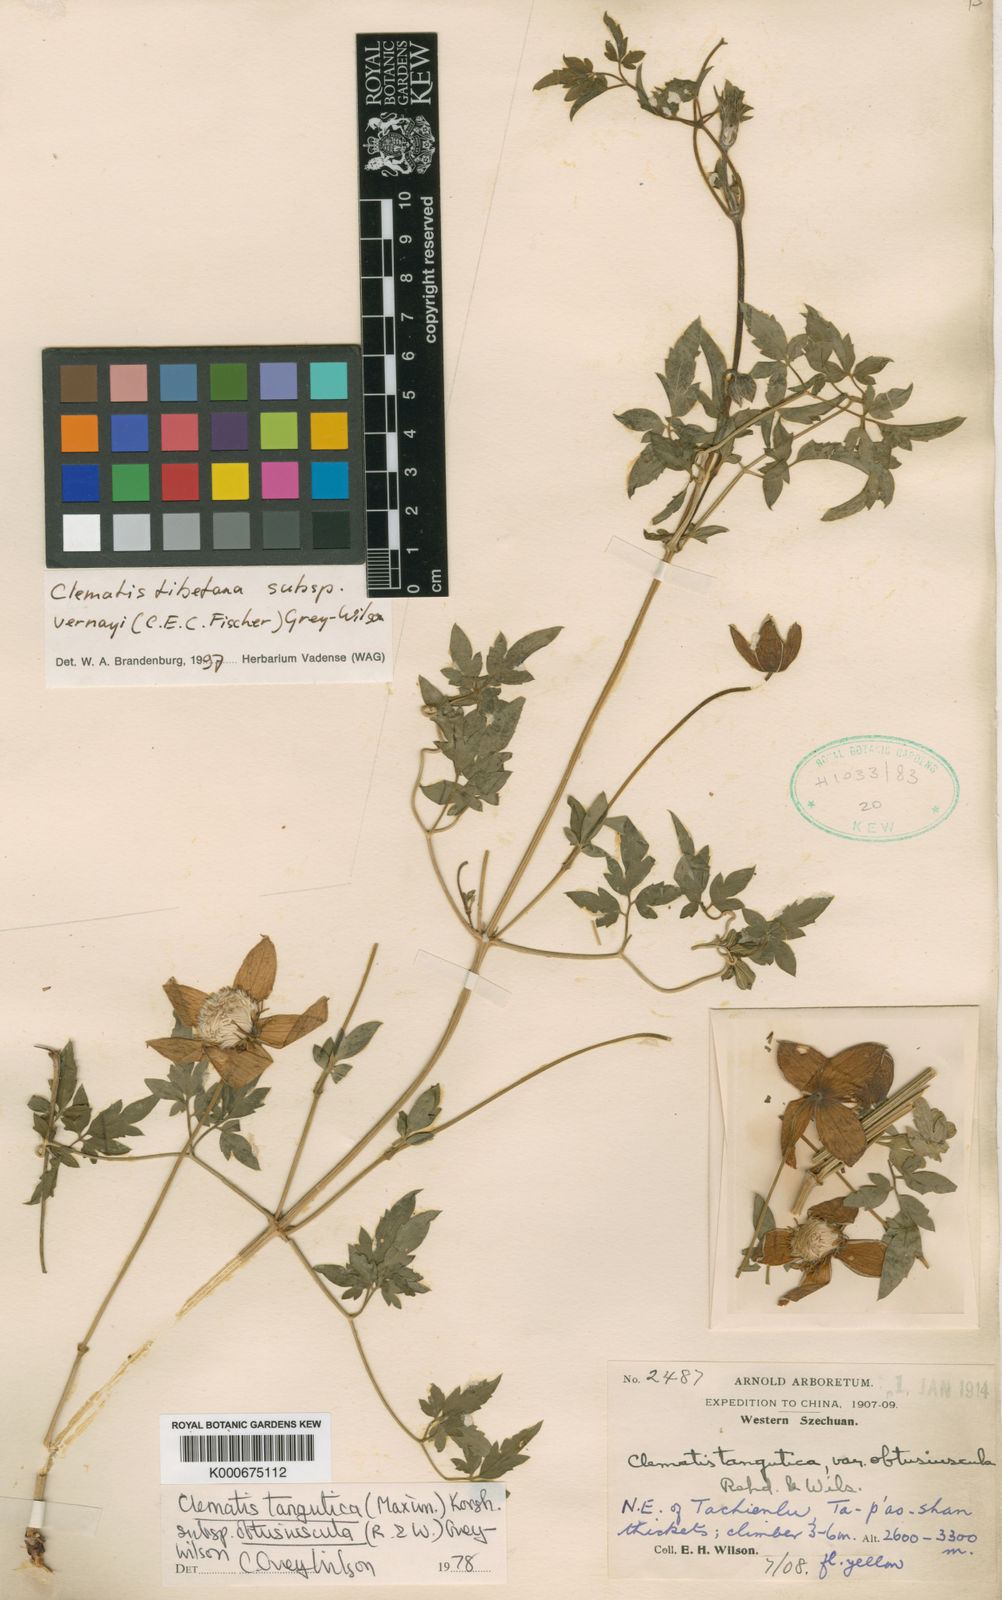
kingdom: Plantae
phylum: Tracheophyta
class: Magnoliopsida
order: Ranunculales
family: Ranunculaceae
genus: Clematis
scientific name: Clematis tangutica
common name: Orange-peel clematis
